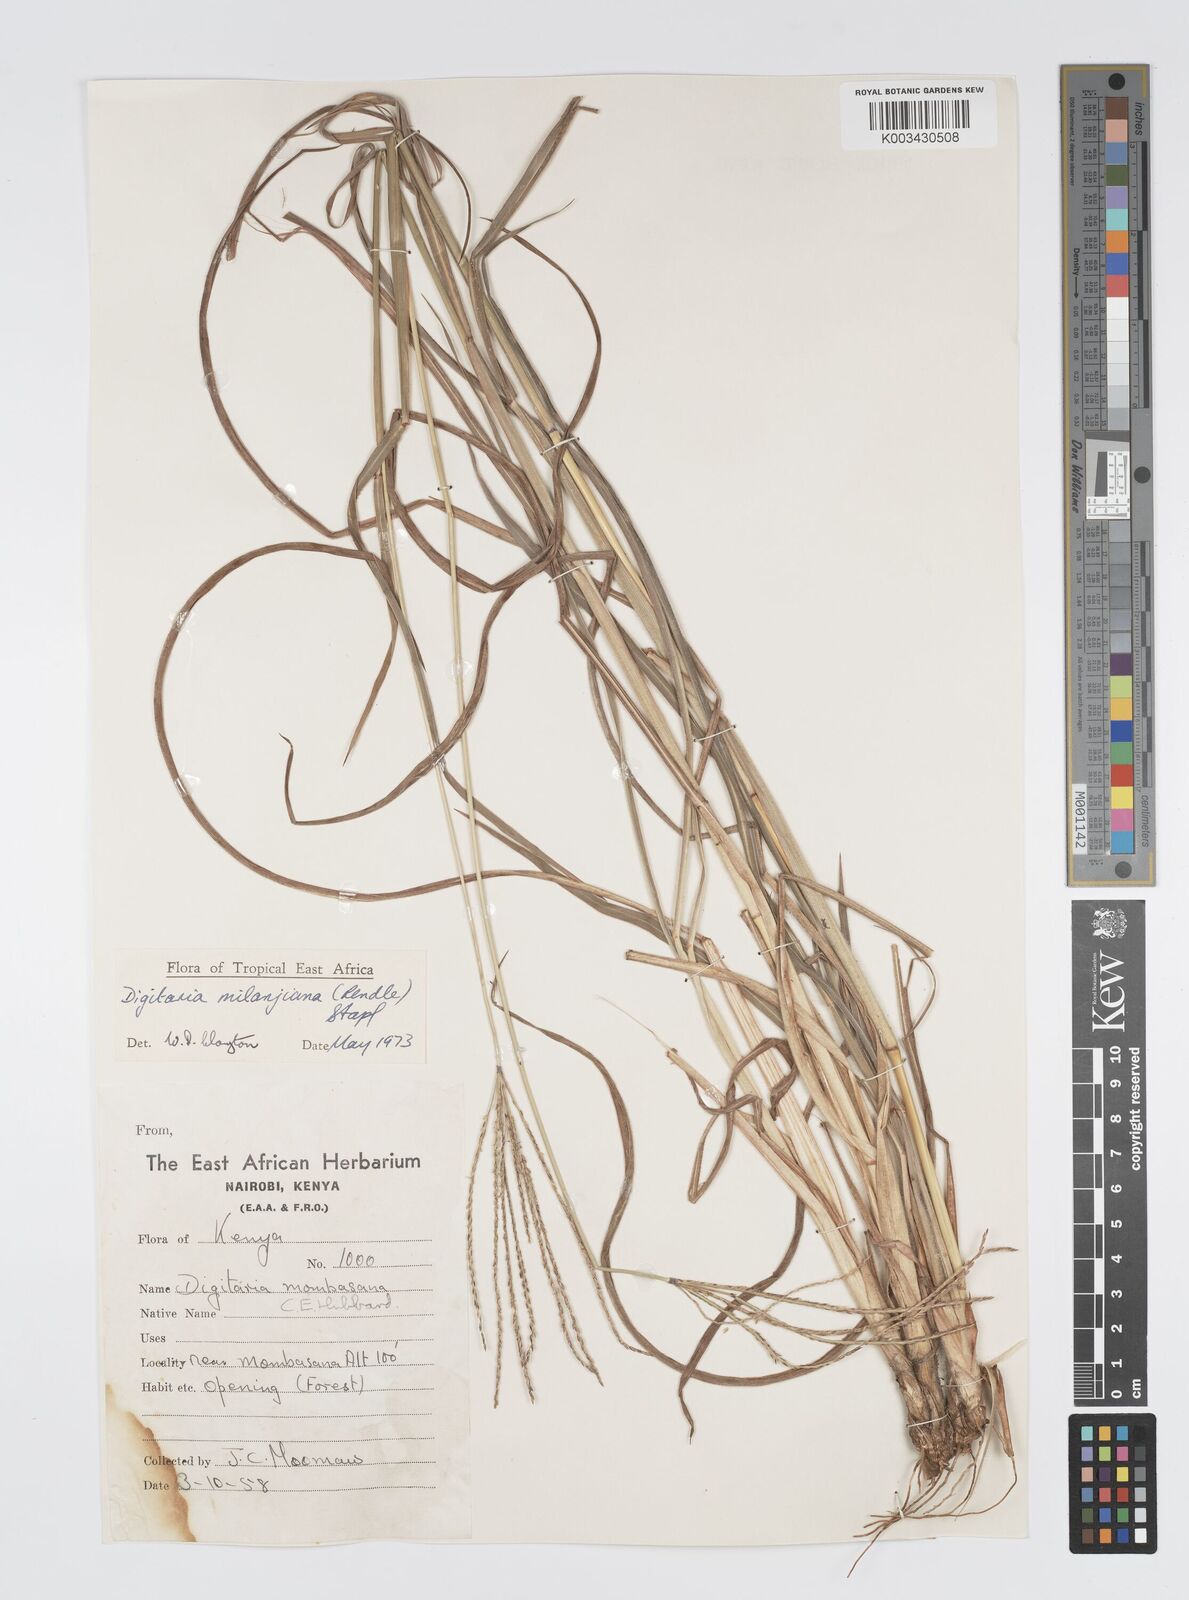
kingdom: Plantae
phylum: Tracheophyta
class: Liliopsida
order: Poales
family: Poaceae
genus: Digitaria
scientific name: Digitaria milanjiana
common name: Madagascar crabgrass
